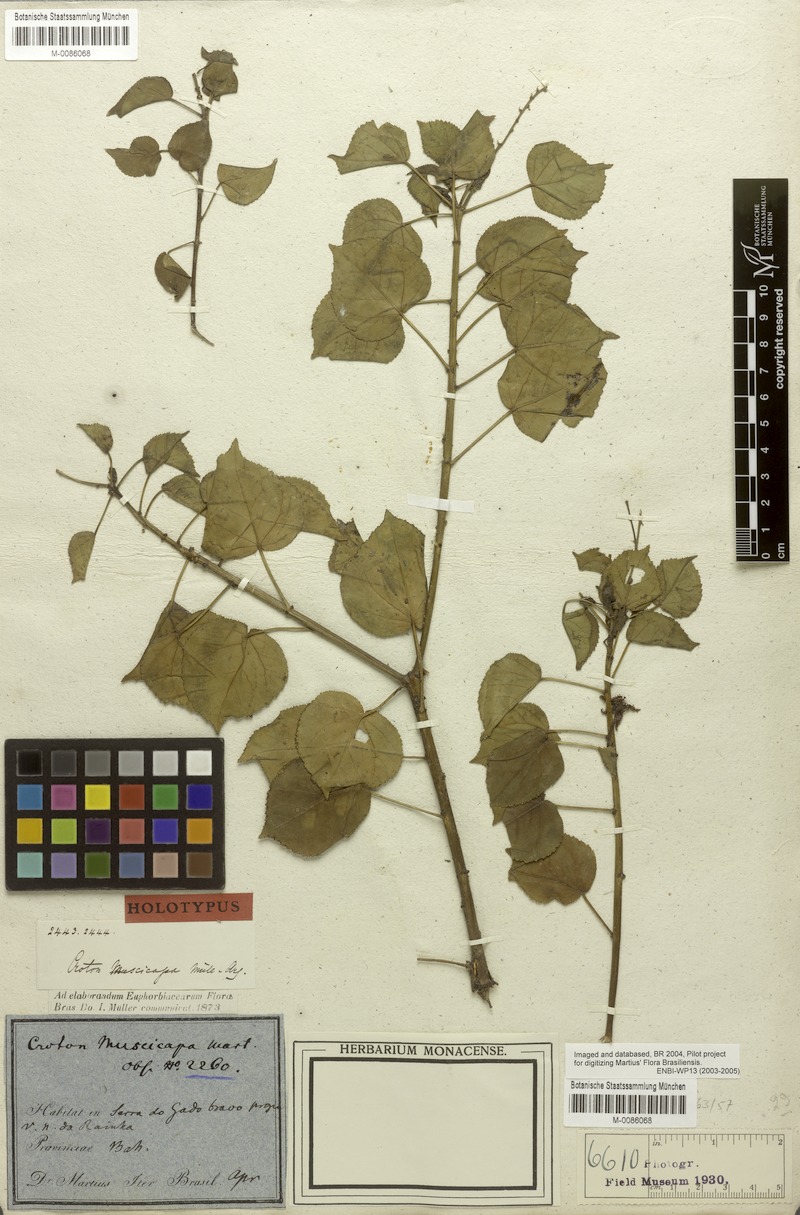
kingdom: Plantae
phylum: Tracheophyta
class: Magnoliopsida
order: Malpighiales
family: Euphorbiaceae
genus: Croton
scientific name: Croton muscicapa
